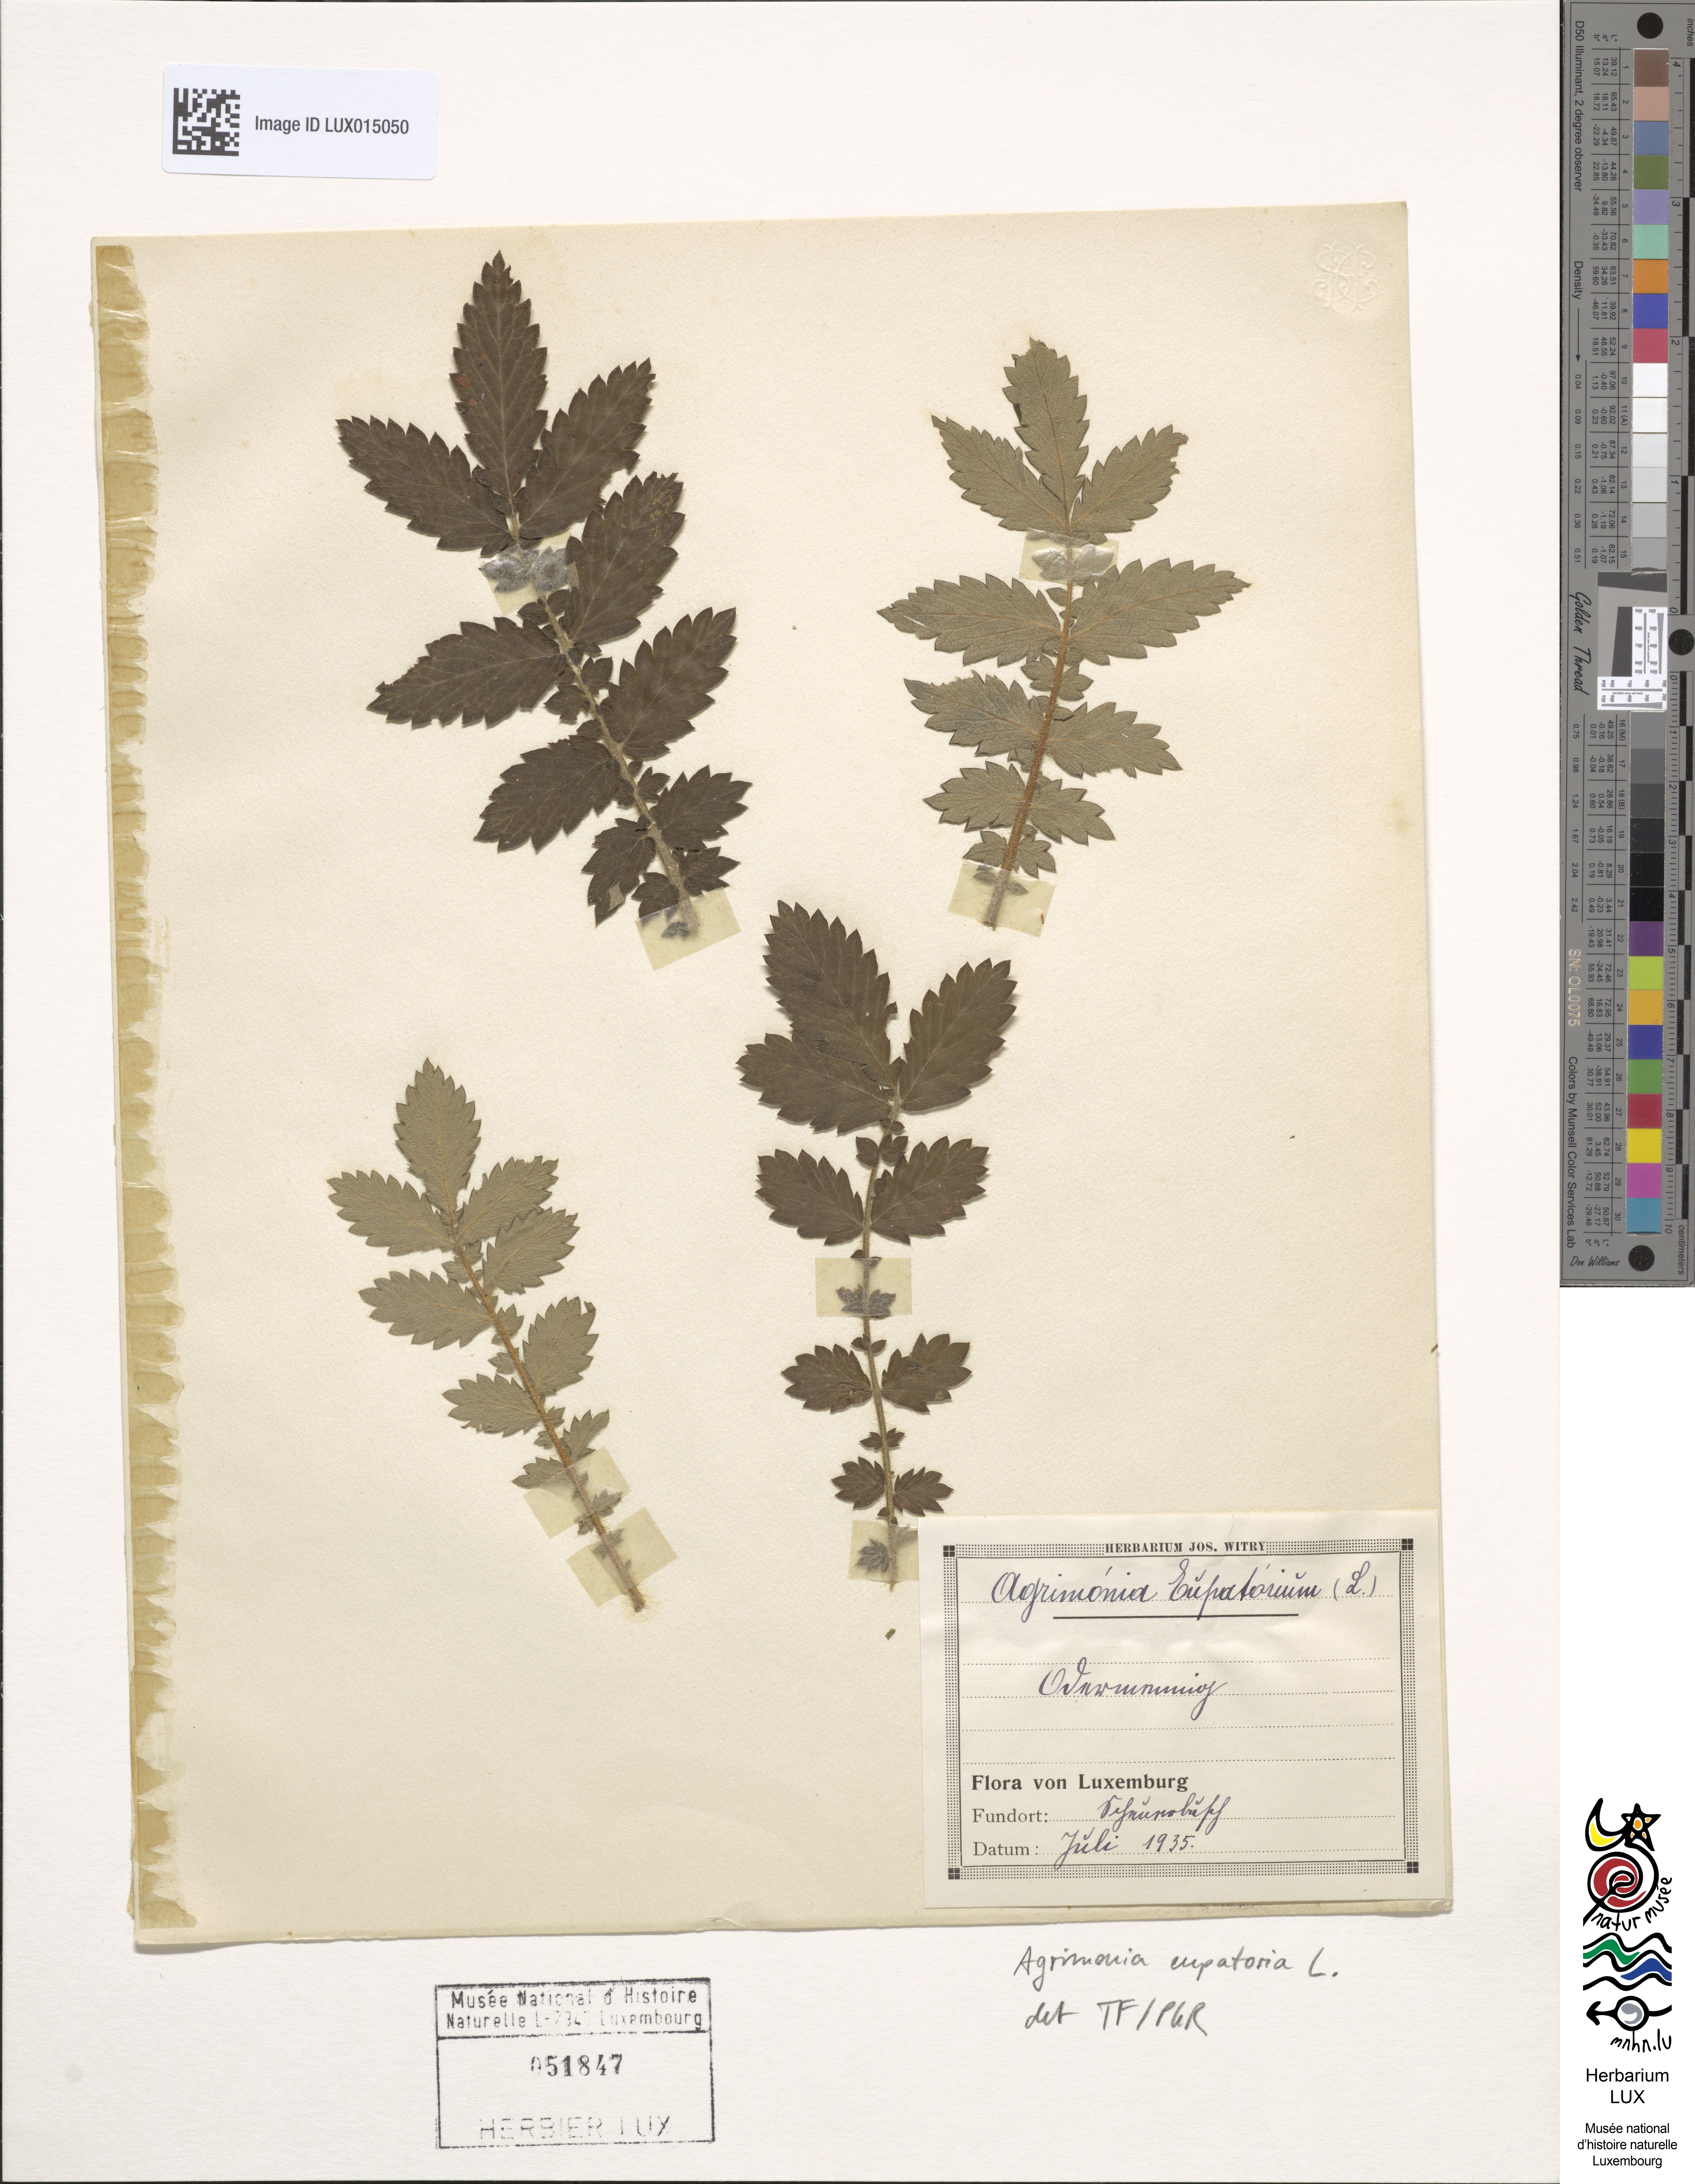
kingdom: Plantae
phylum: Tracheophyta
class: Magnoliopsida
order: Rosales
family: Rosaceae
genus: Agrimonia
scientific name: Agrimonia eupatoria
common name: Agrimony
